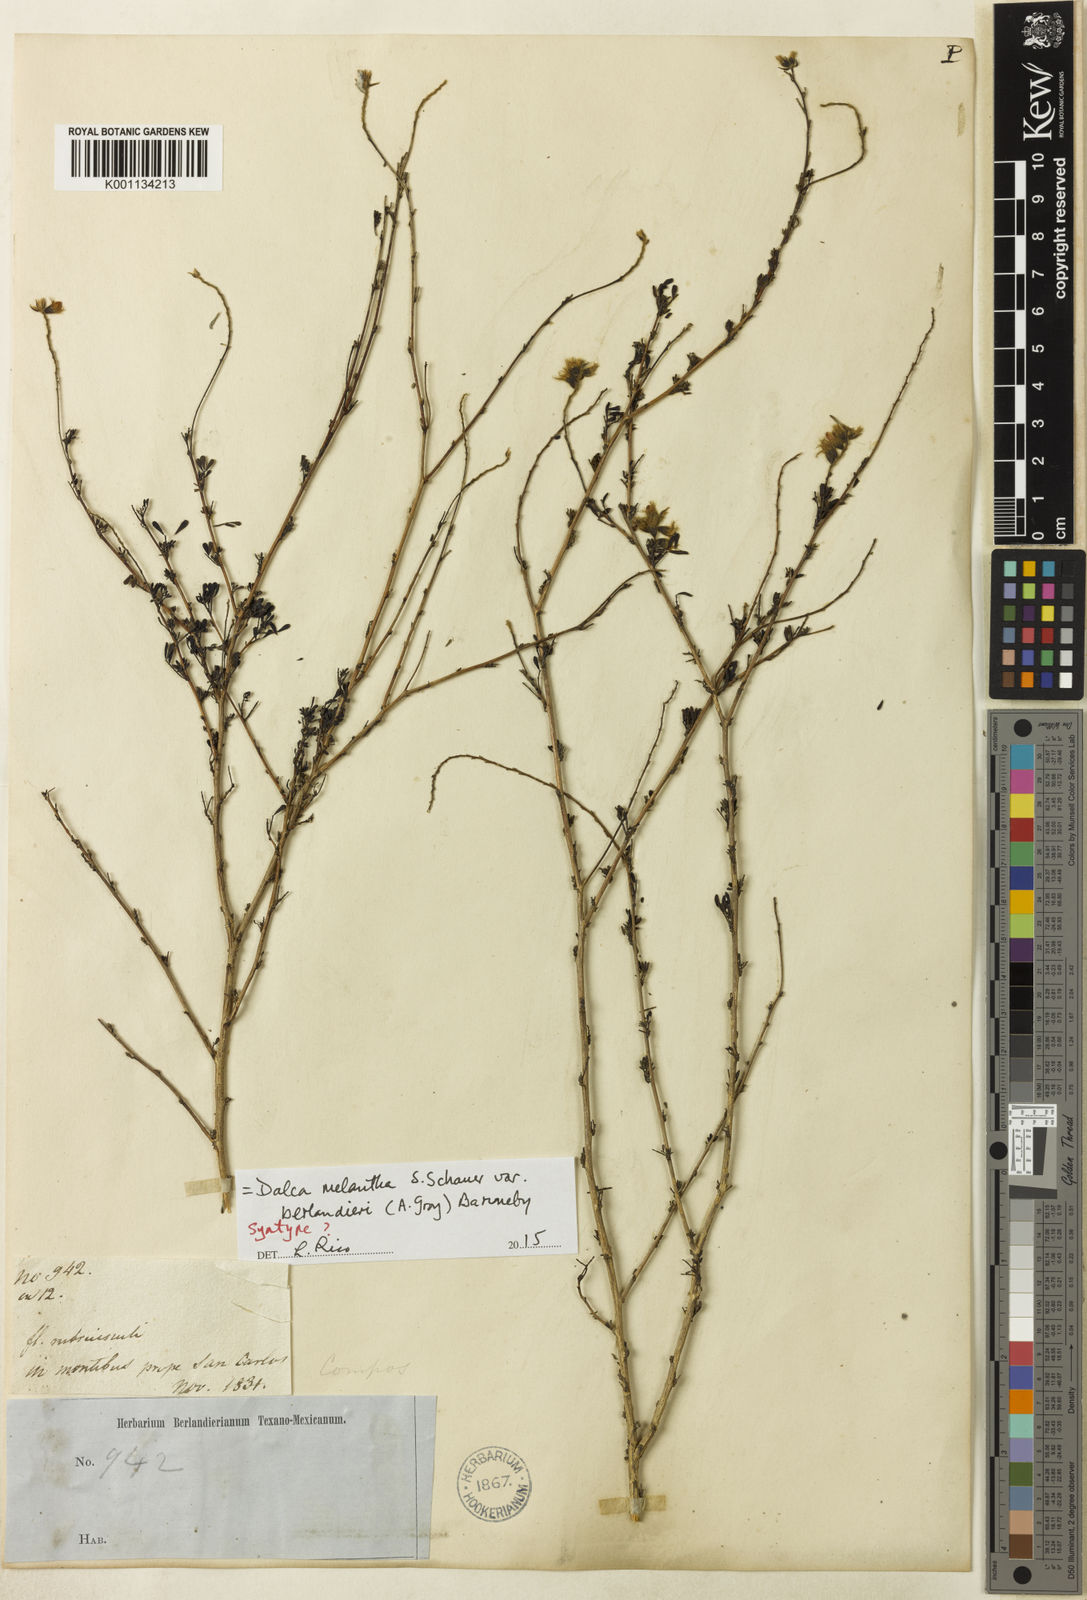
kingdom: Plantae
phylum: Tracheophyta
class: Magnoliopsida
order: Fabales
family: Fabaceae
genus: Dalea
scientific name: Dalea melantha
